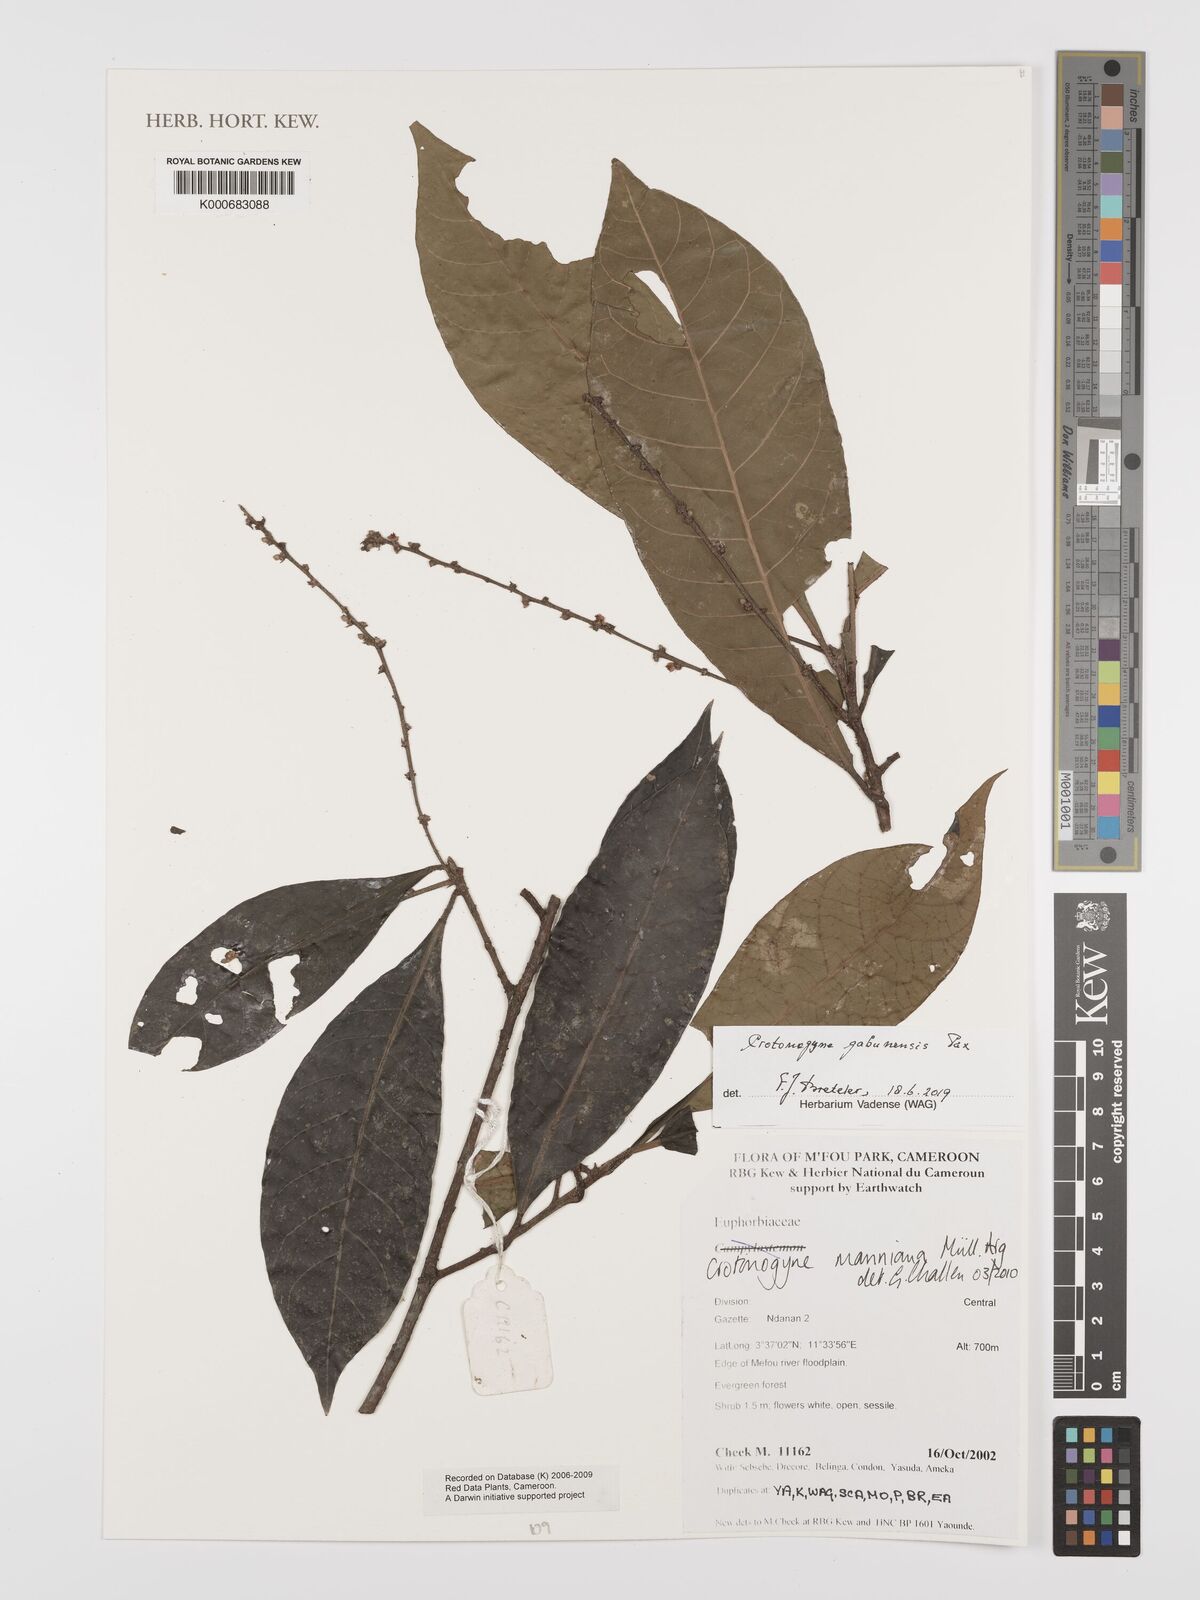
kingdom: Plantae
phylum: Tracheophyta
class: Magnoliopsida
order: Malpighiales
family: Euphorbiaceae
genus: Crotonogyne
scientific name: Crotonogyne gabunensis
